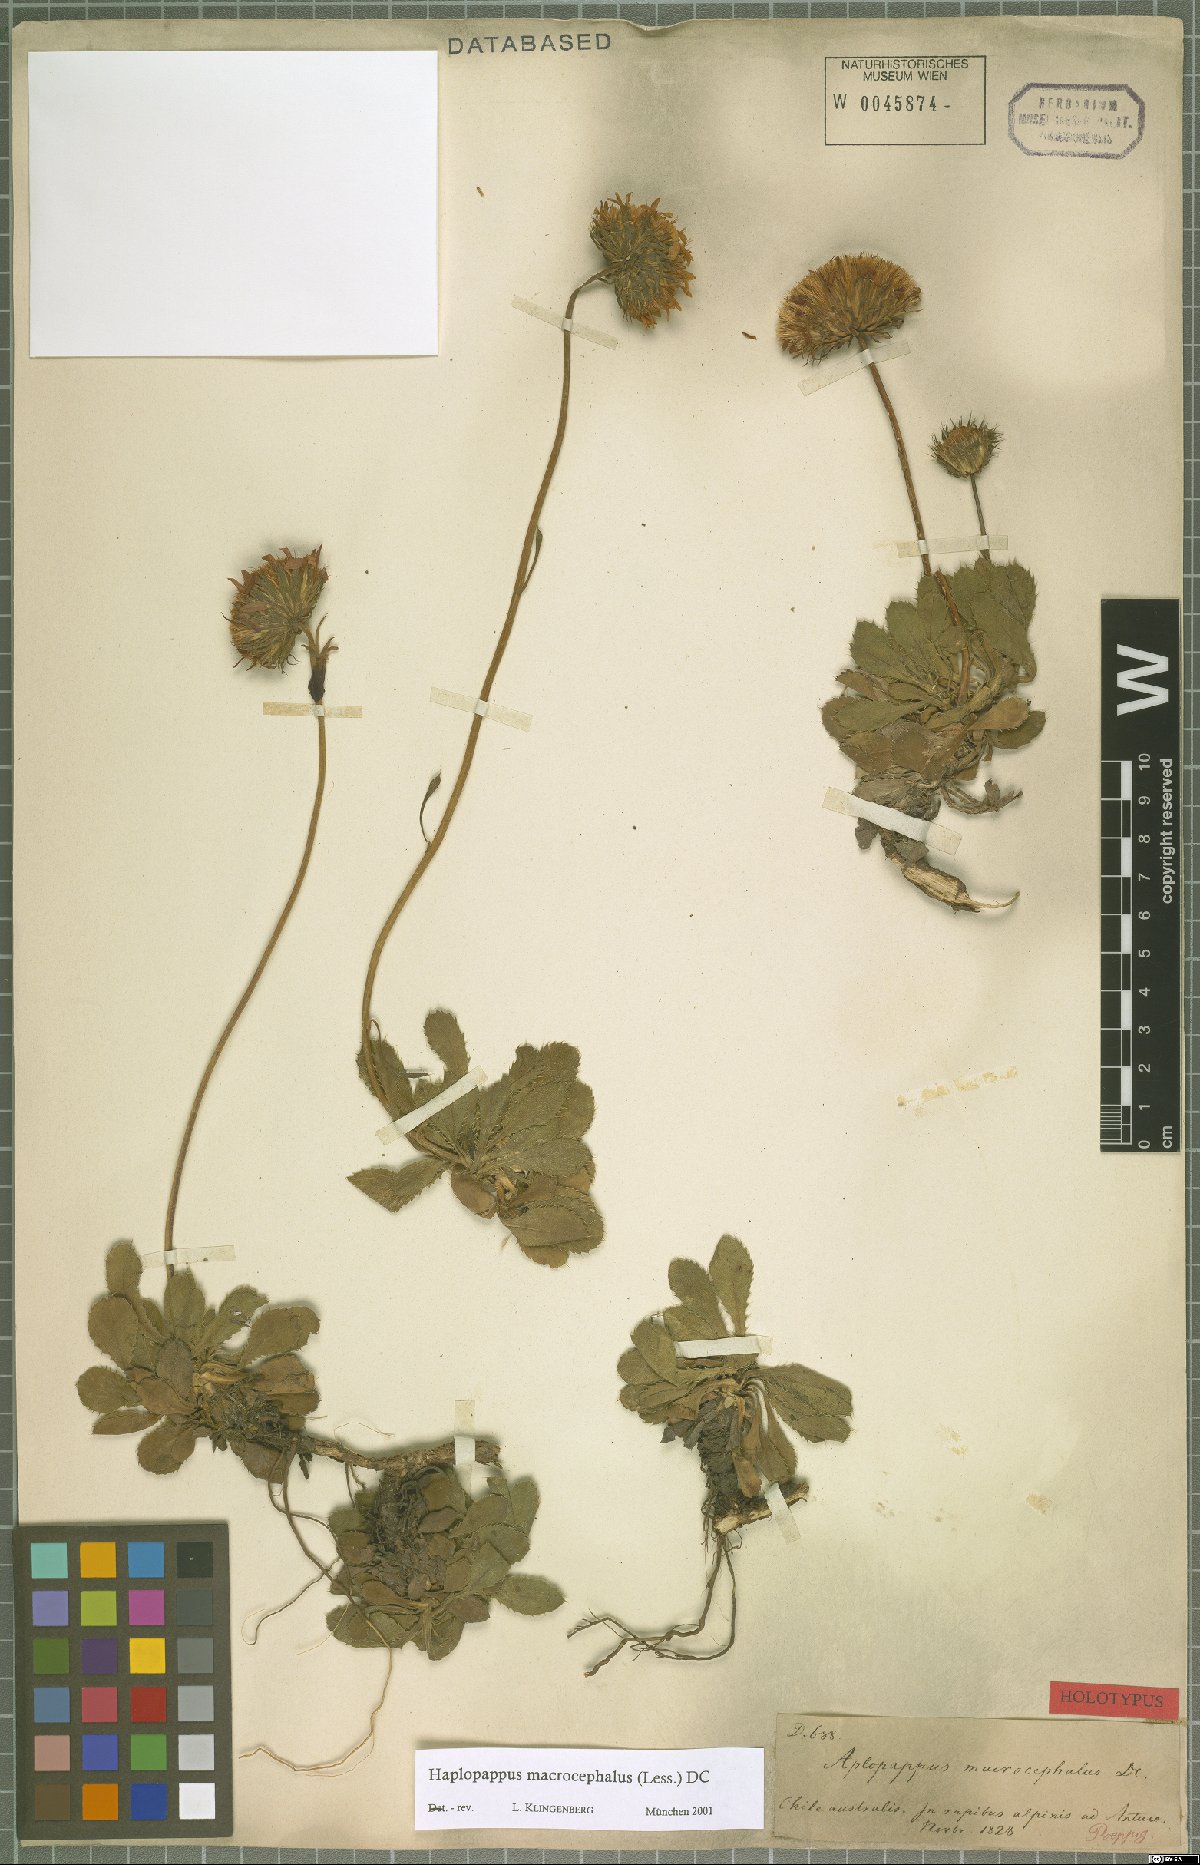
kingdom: Plantae
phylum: Tracheophyta
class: Magnoliopsida
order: Asterales
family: Asteraceae
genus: Haplopappus
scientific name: Haplopappus macrocephalus
